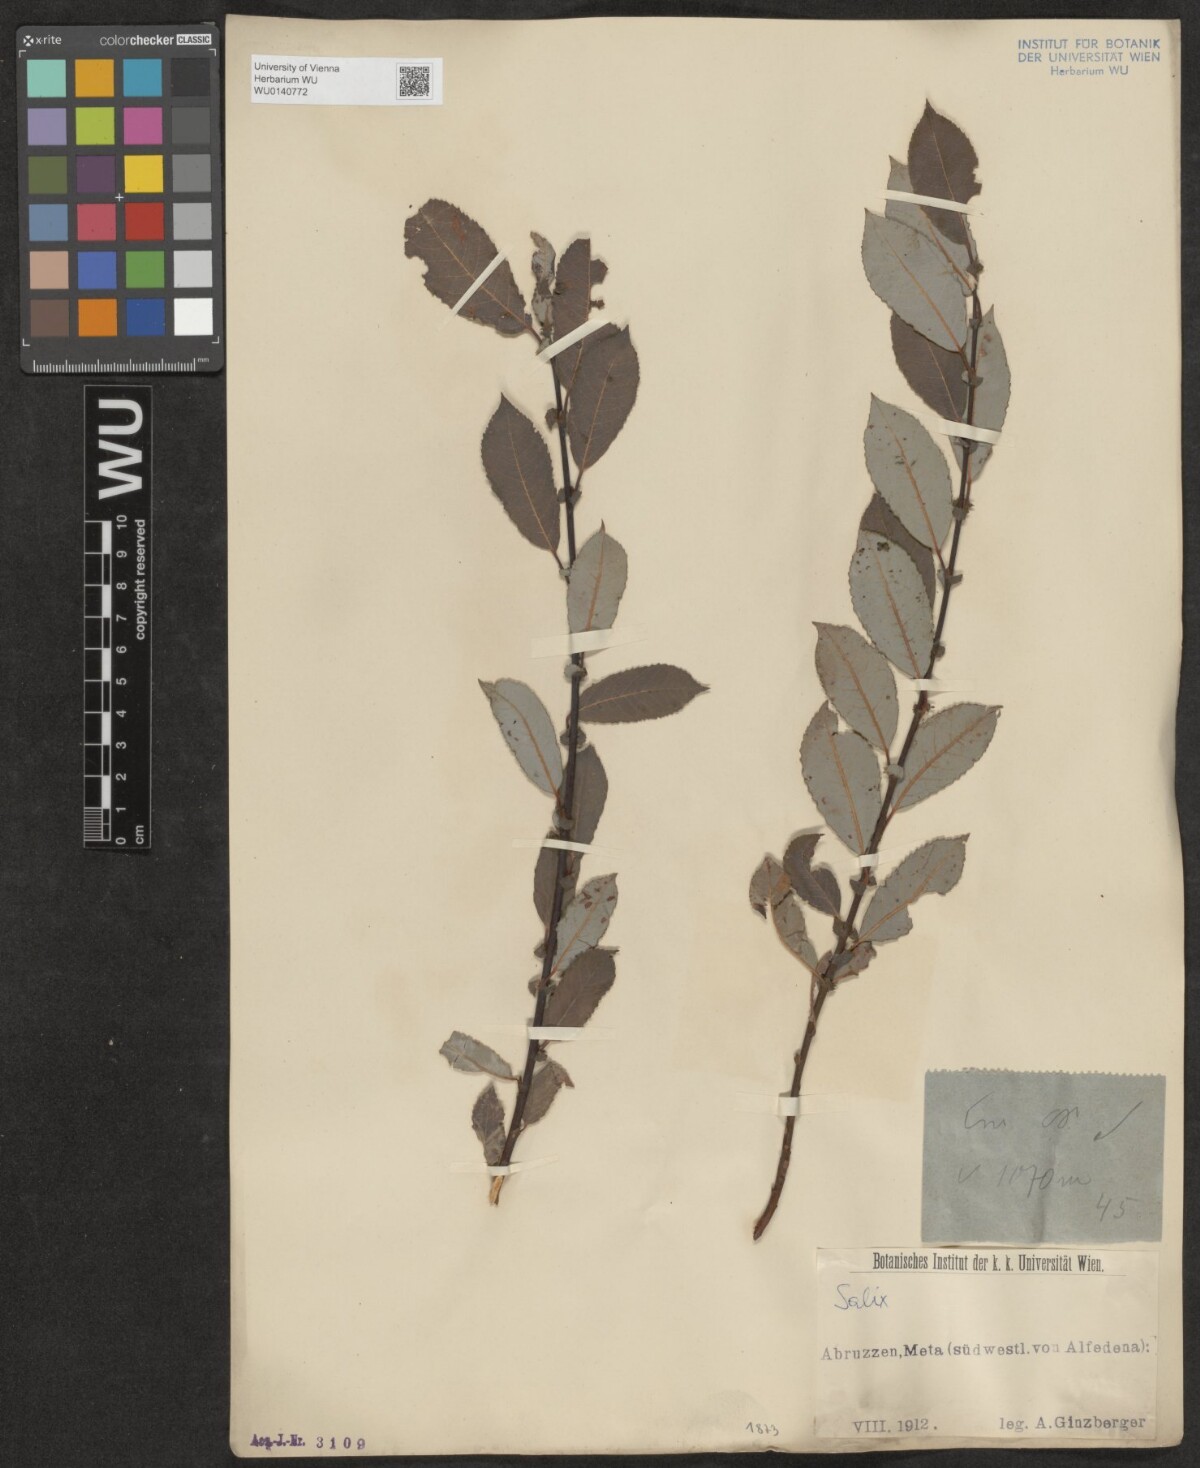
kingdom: Plantae
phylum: Tracheophyta
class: Magnoliopsida
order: Malpighiales
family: Salicaceae
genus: Salix
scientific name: Salix
